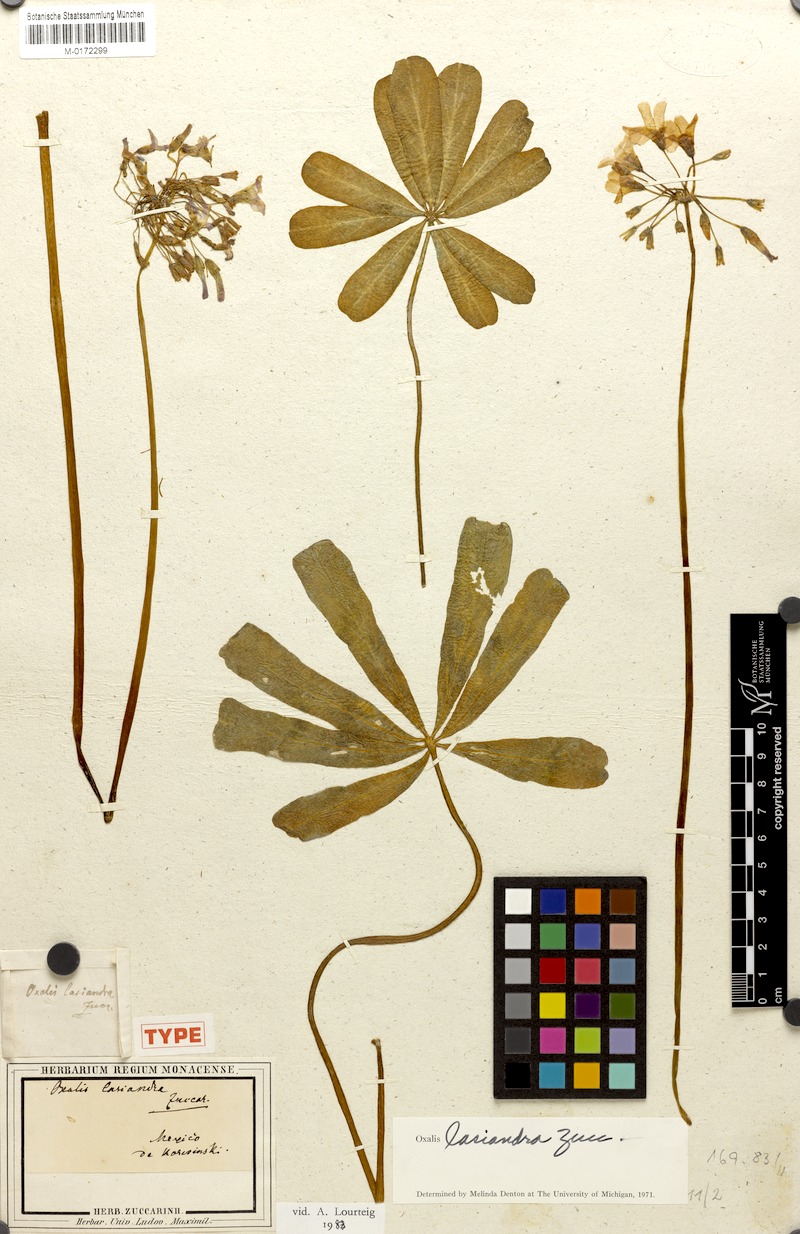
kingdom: Plantae
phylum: Tracheophyta
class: Magnoliopsida
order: Oxalidales
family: Oxalidaceae
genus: Oxalis
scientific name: Oxalis lasiandra
